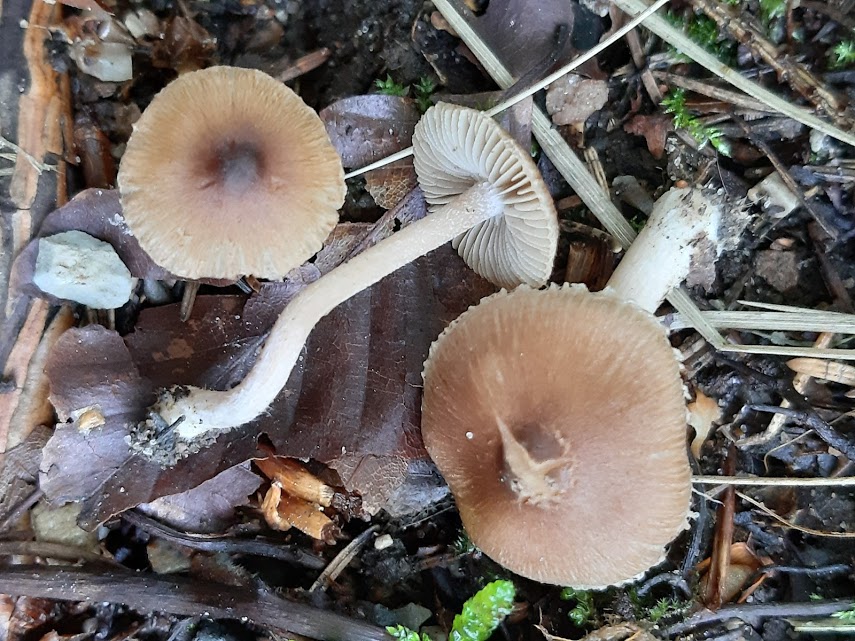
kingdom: Fungi
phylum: Basidiomycota
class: Agaricomycetes
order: Agaricales
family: Inocybaceae
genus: Inocybe
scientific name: Inocybe
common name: trævlhat
